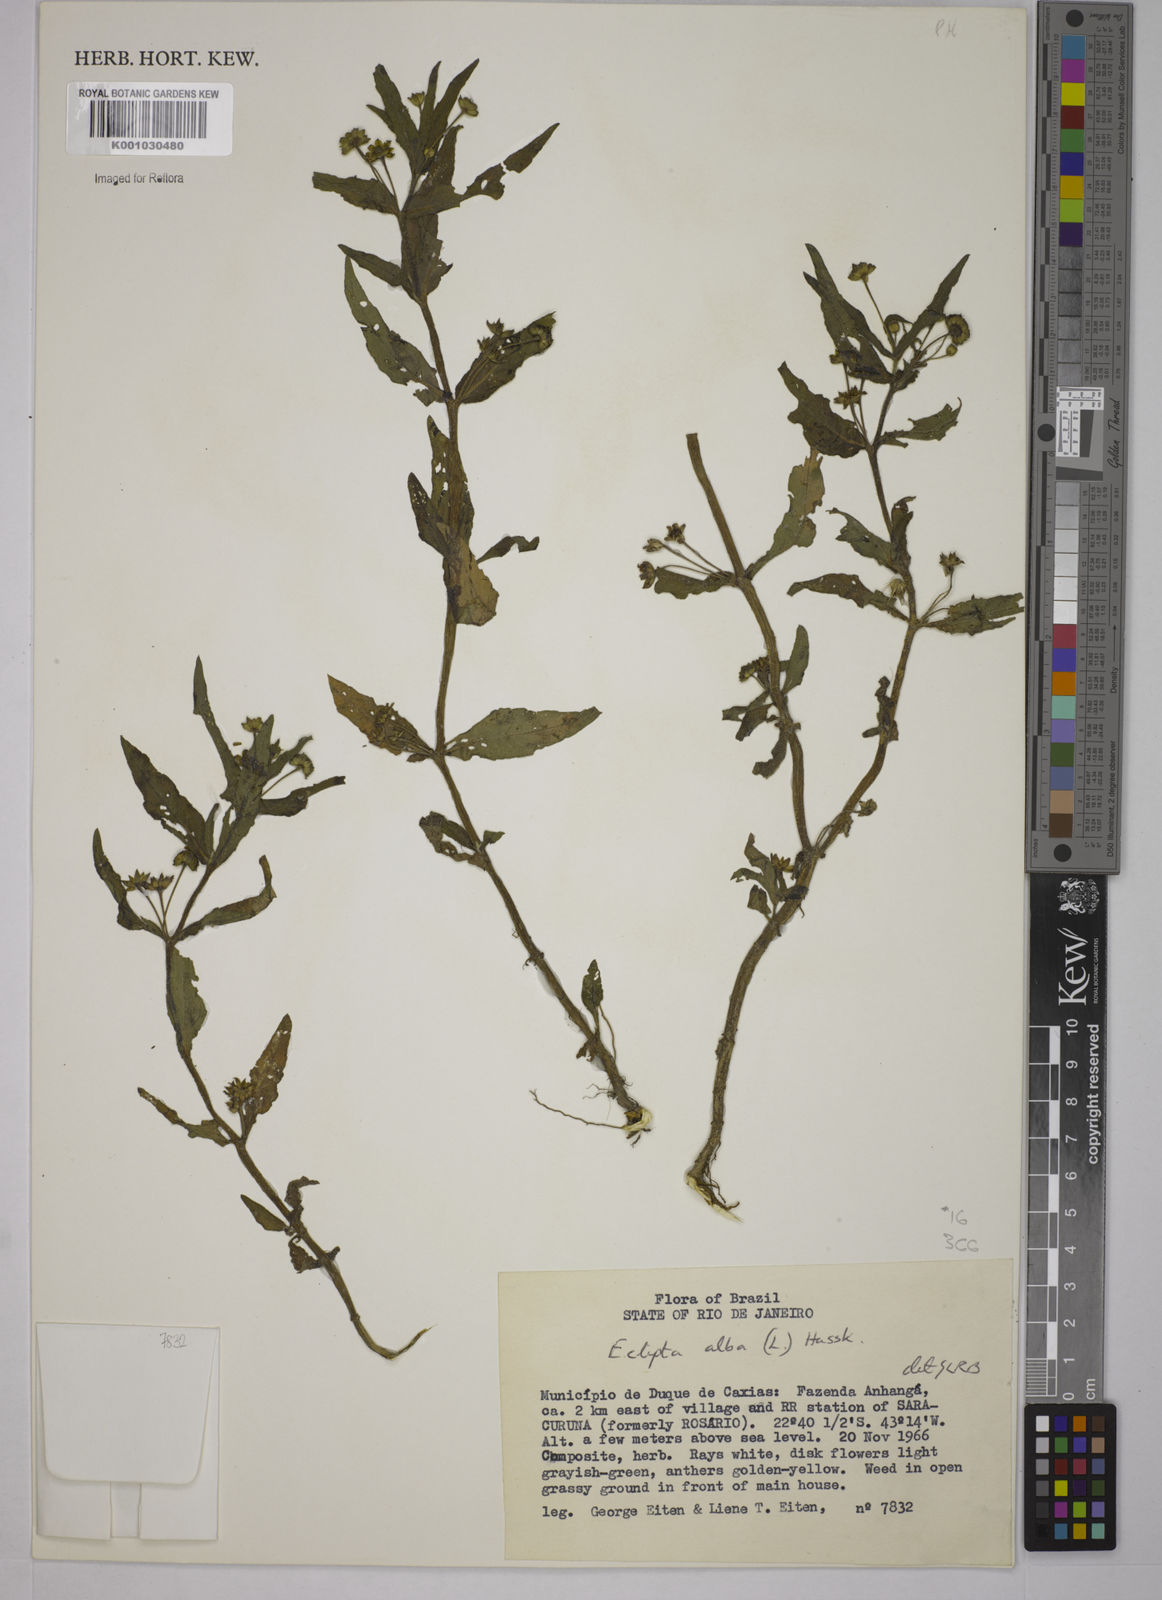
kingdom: Plantae
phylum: Tracheophyta
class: Magnoliopsida
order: Asterales
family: Asteraceae
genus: Eclipta
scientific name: Eclipta prostrata
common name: False daisy
